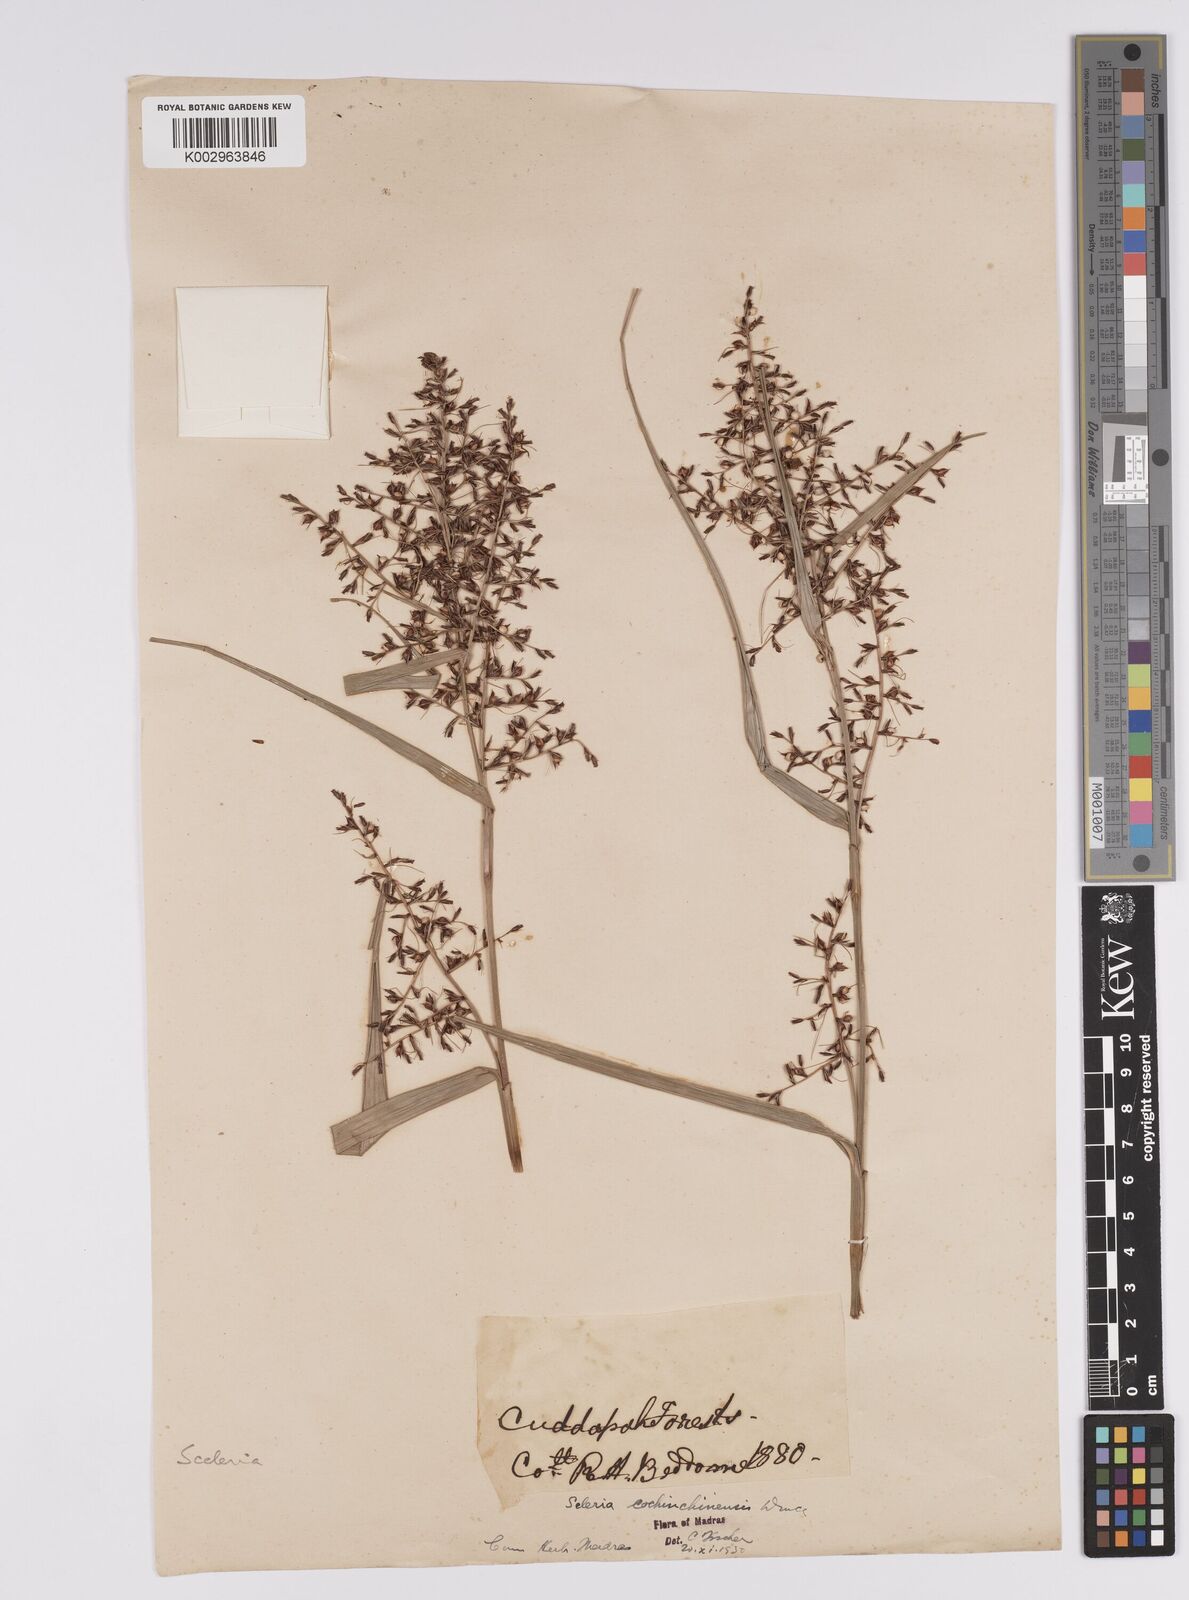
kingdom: Plantae
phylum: Tracheophyta
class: Liliopsida
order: Poales
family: Cyperaceae
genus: Scleria
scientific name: Scleria terrestris
